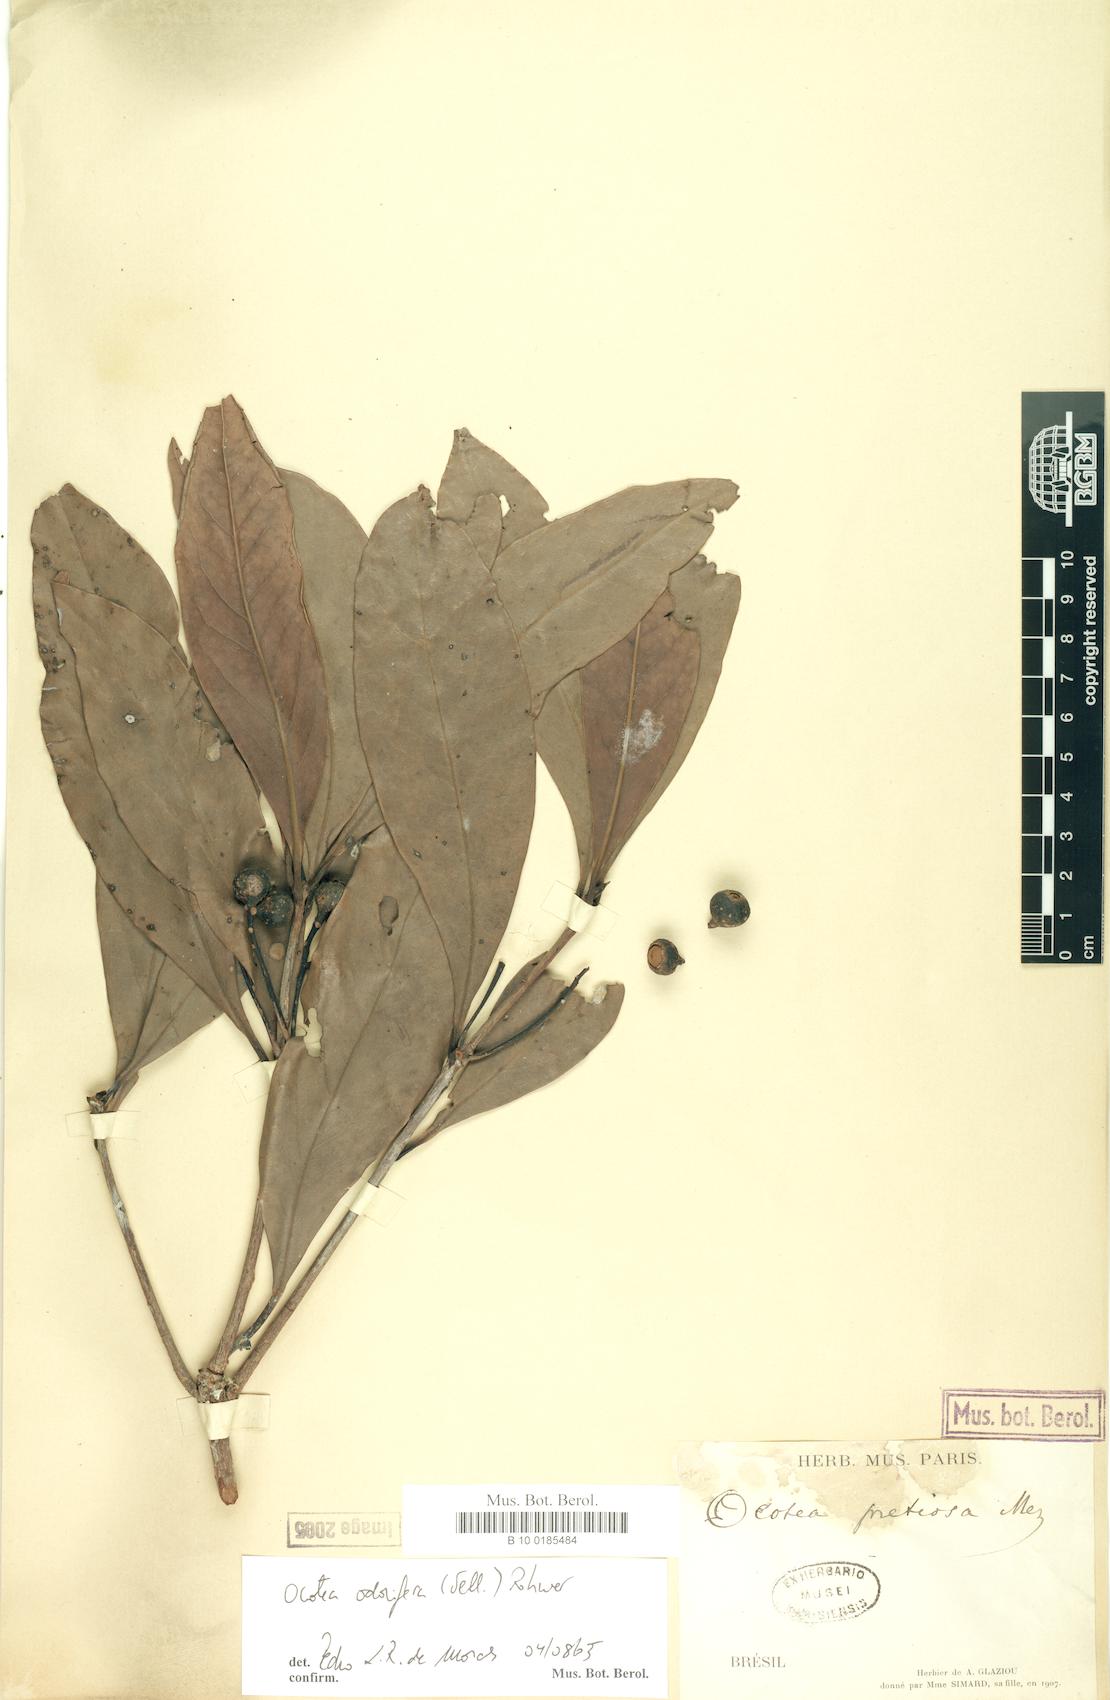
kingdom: Plantae
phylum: Tracheophyta
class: Magnoliopsida
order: Laurales
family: Lauraceae
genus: Mespilodaphne
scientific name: Mespilodaphne quixos
